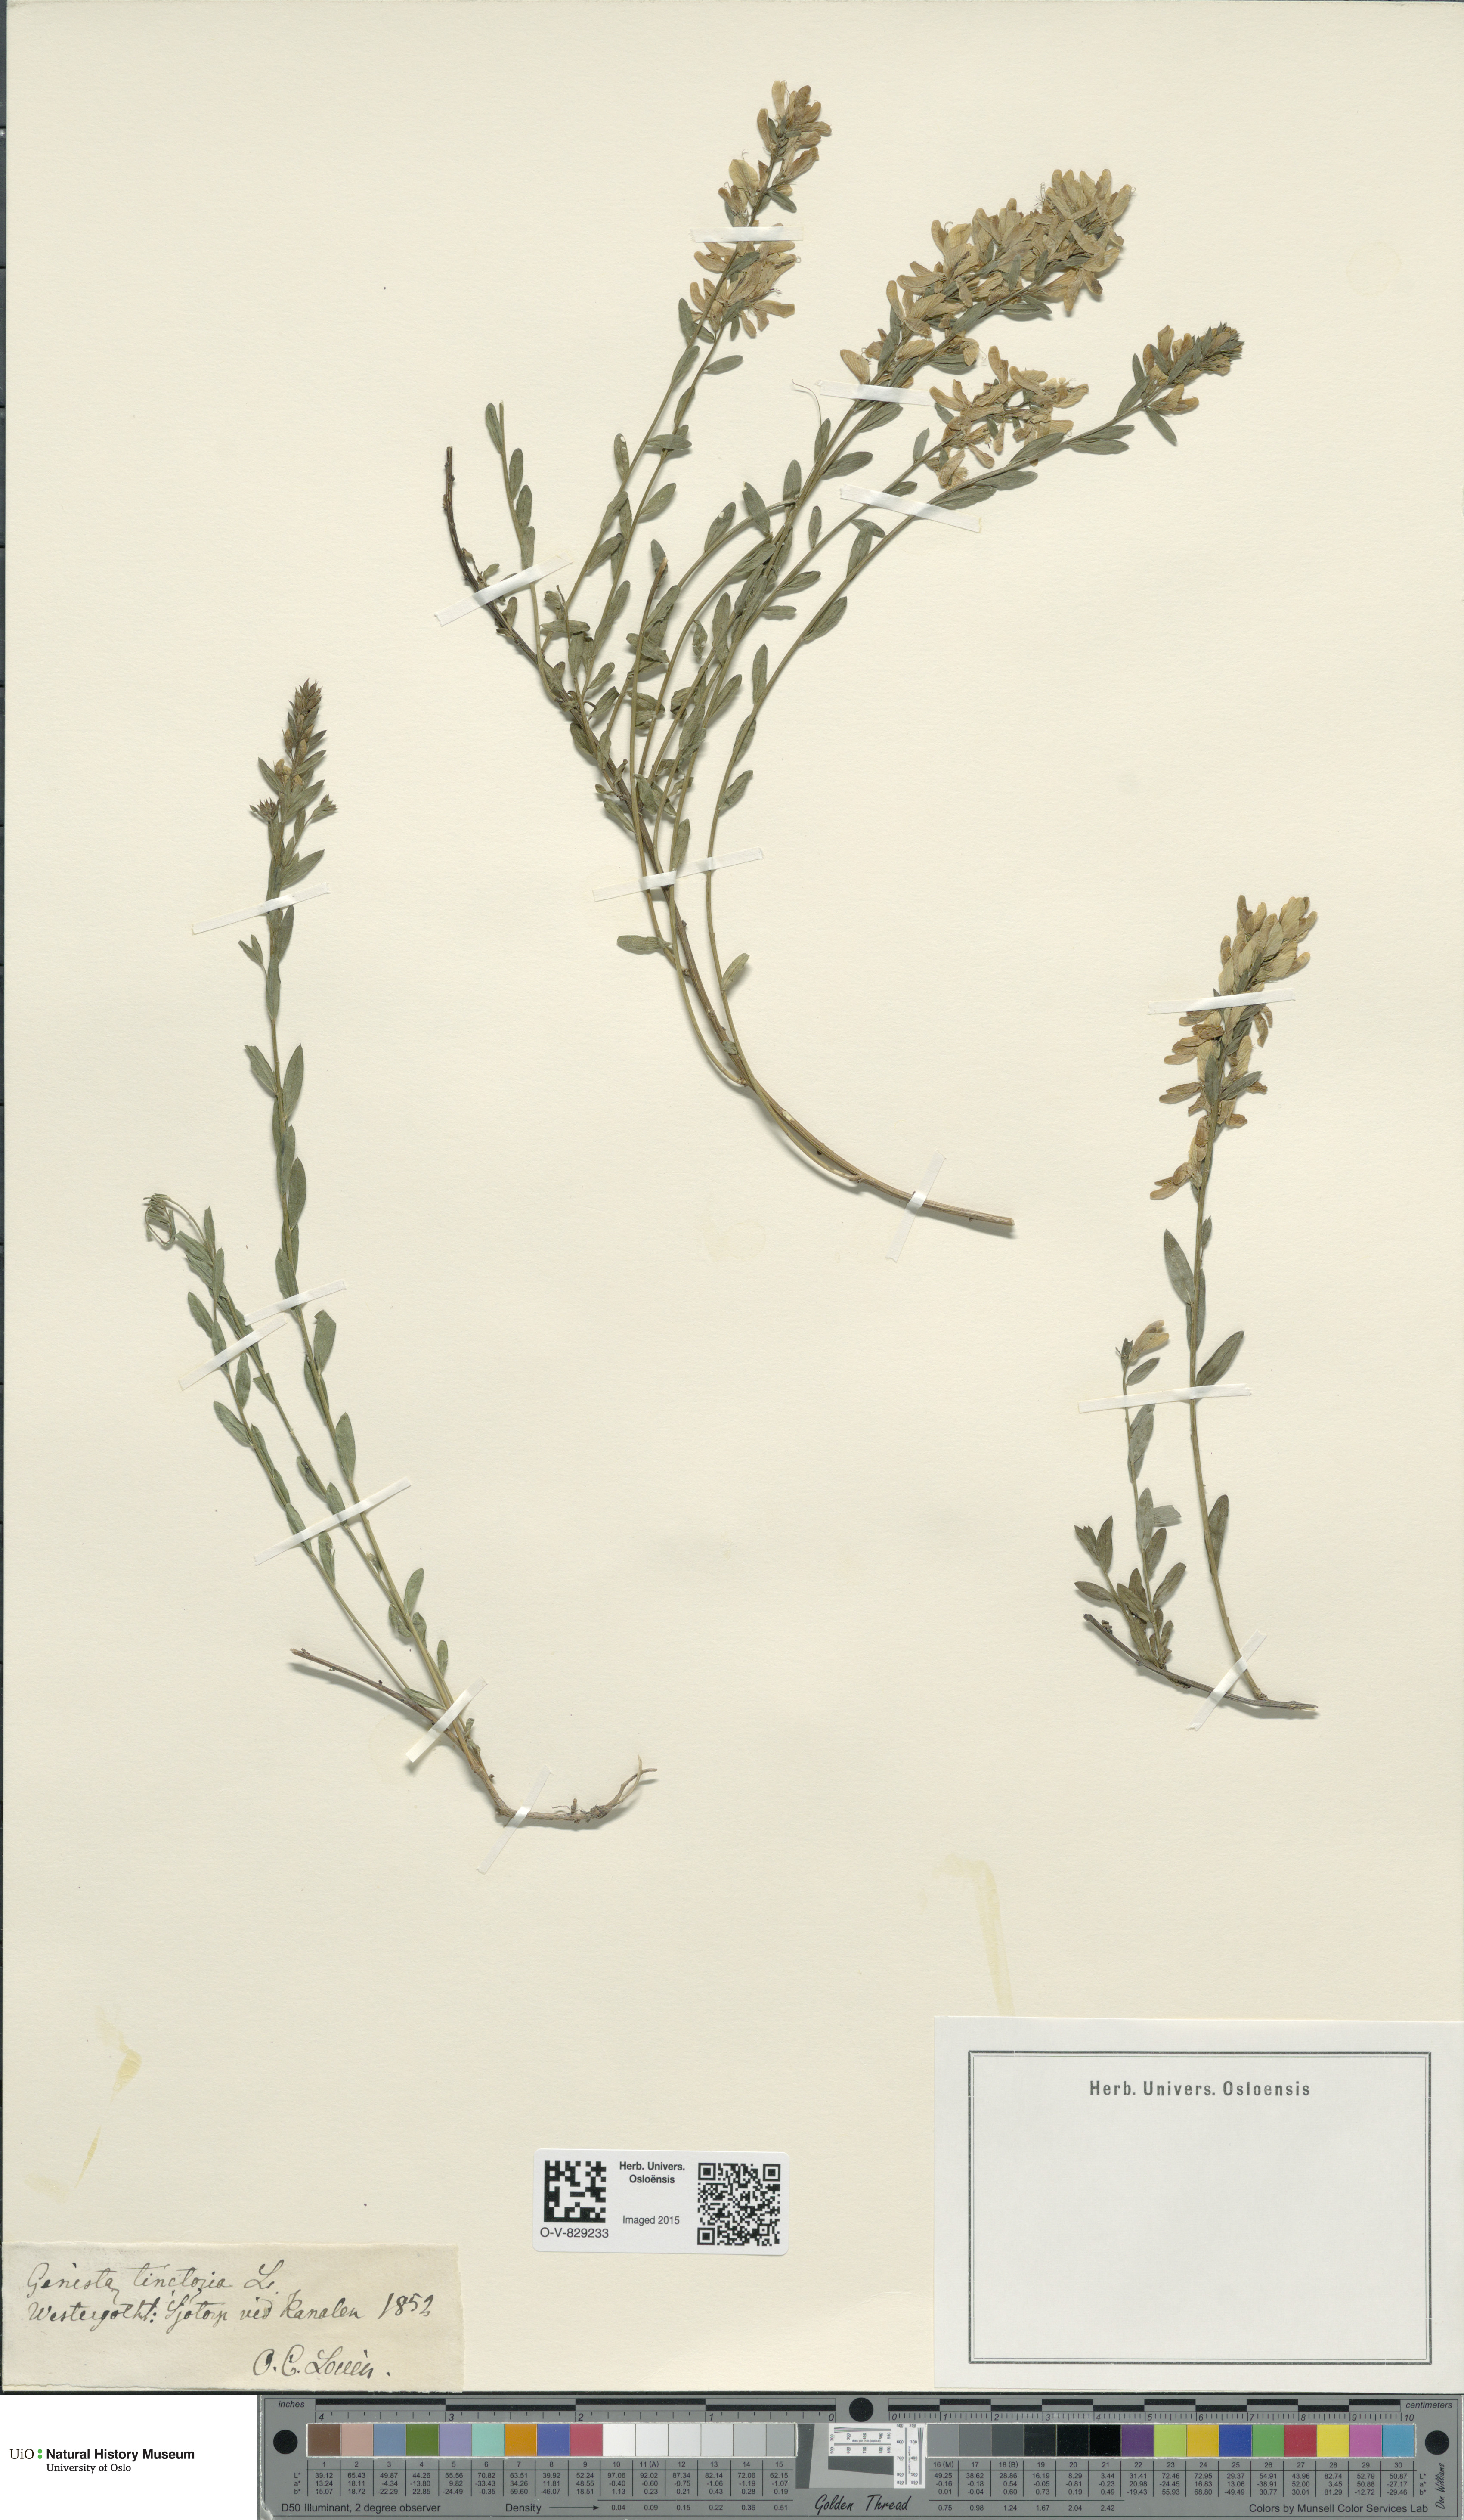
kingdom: Plantae
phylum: Tracheophyta
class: Magnoliopsida
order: Fabales
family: Fabaceae
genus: Genista
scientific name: Genista tinctoria
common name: Dyer's greenweed
